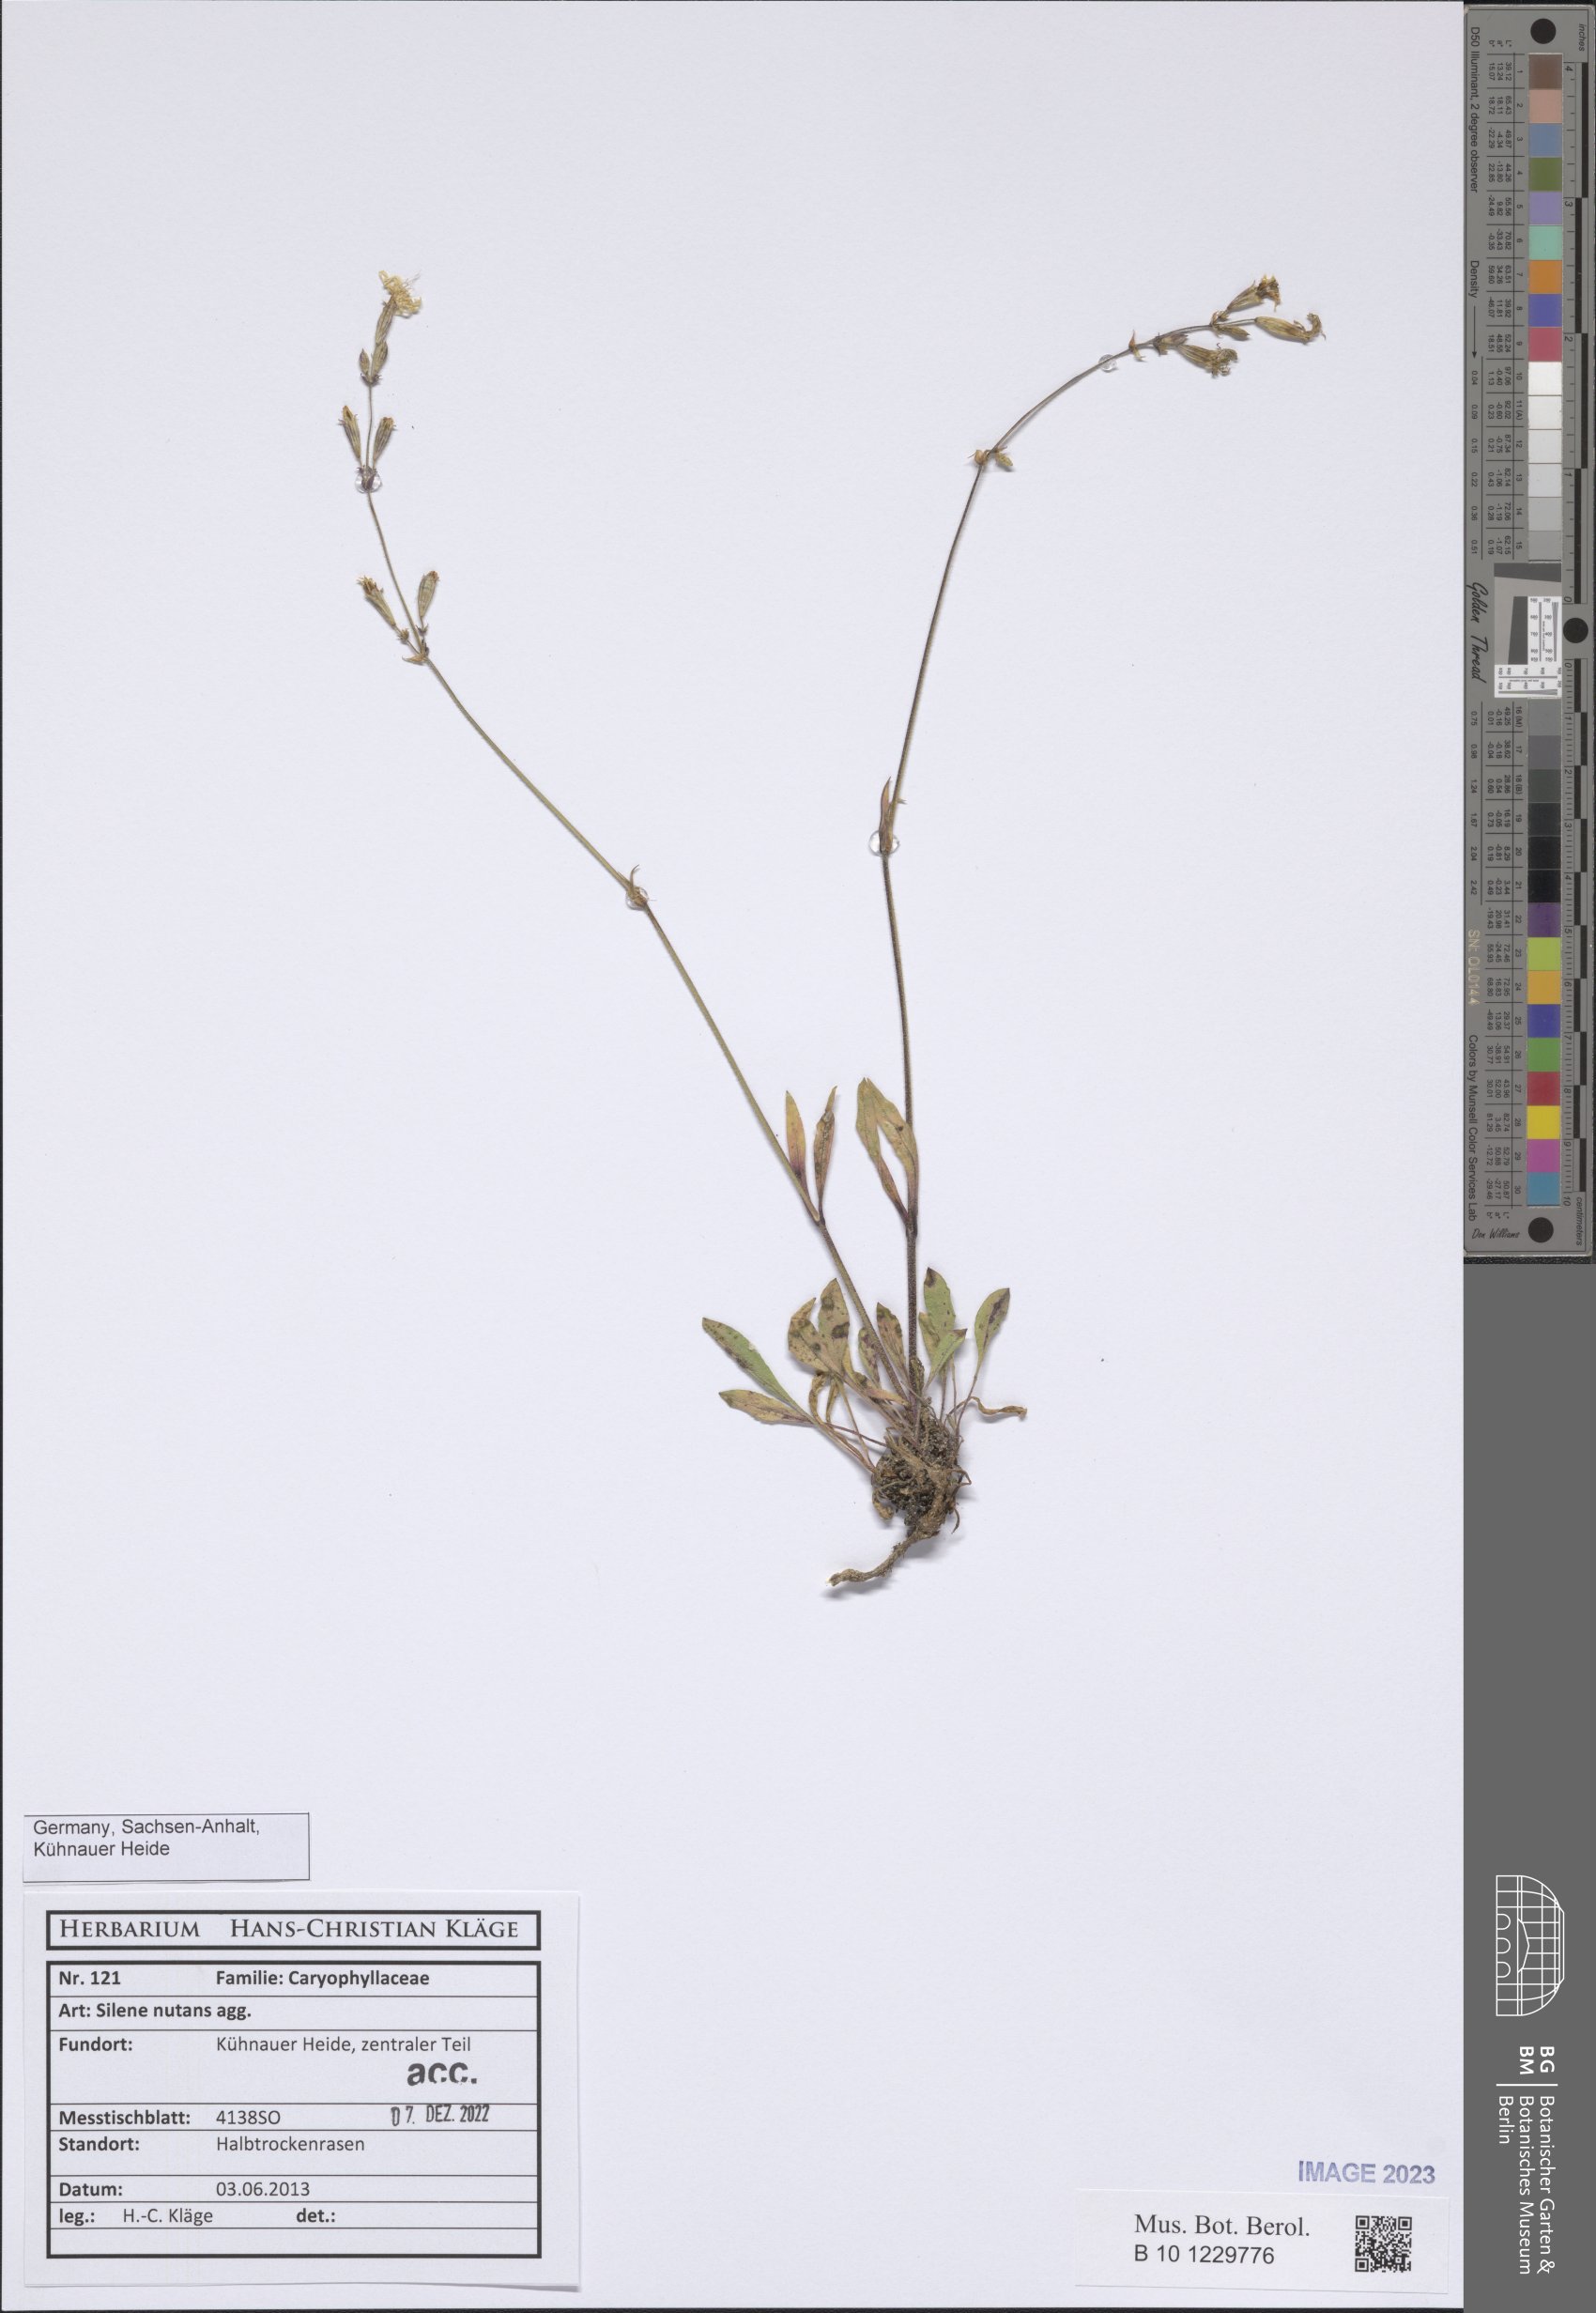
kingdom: Plantae
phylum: Tracheophyta
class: Magnoliopsida
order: Caryophyllales
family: Caryophyllaceae
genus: Silene
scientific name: Silene nutans
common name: Nottingham catchfly
